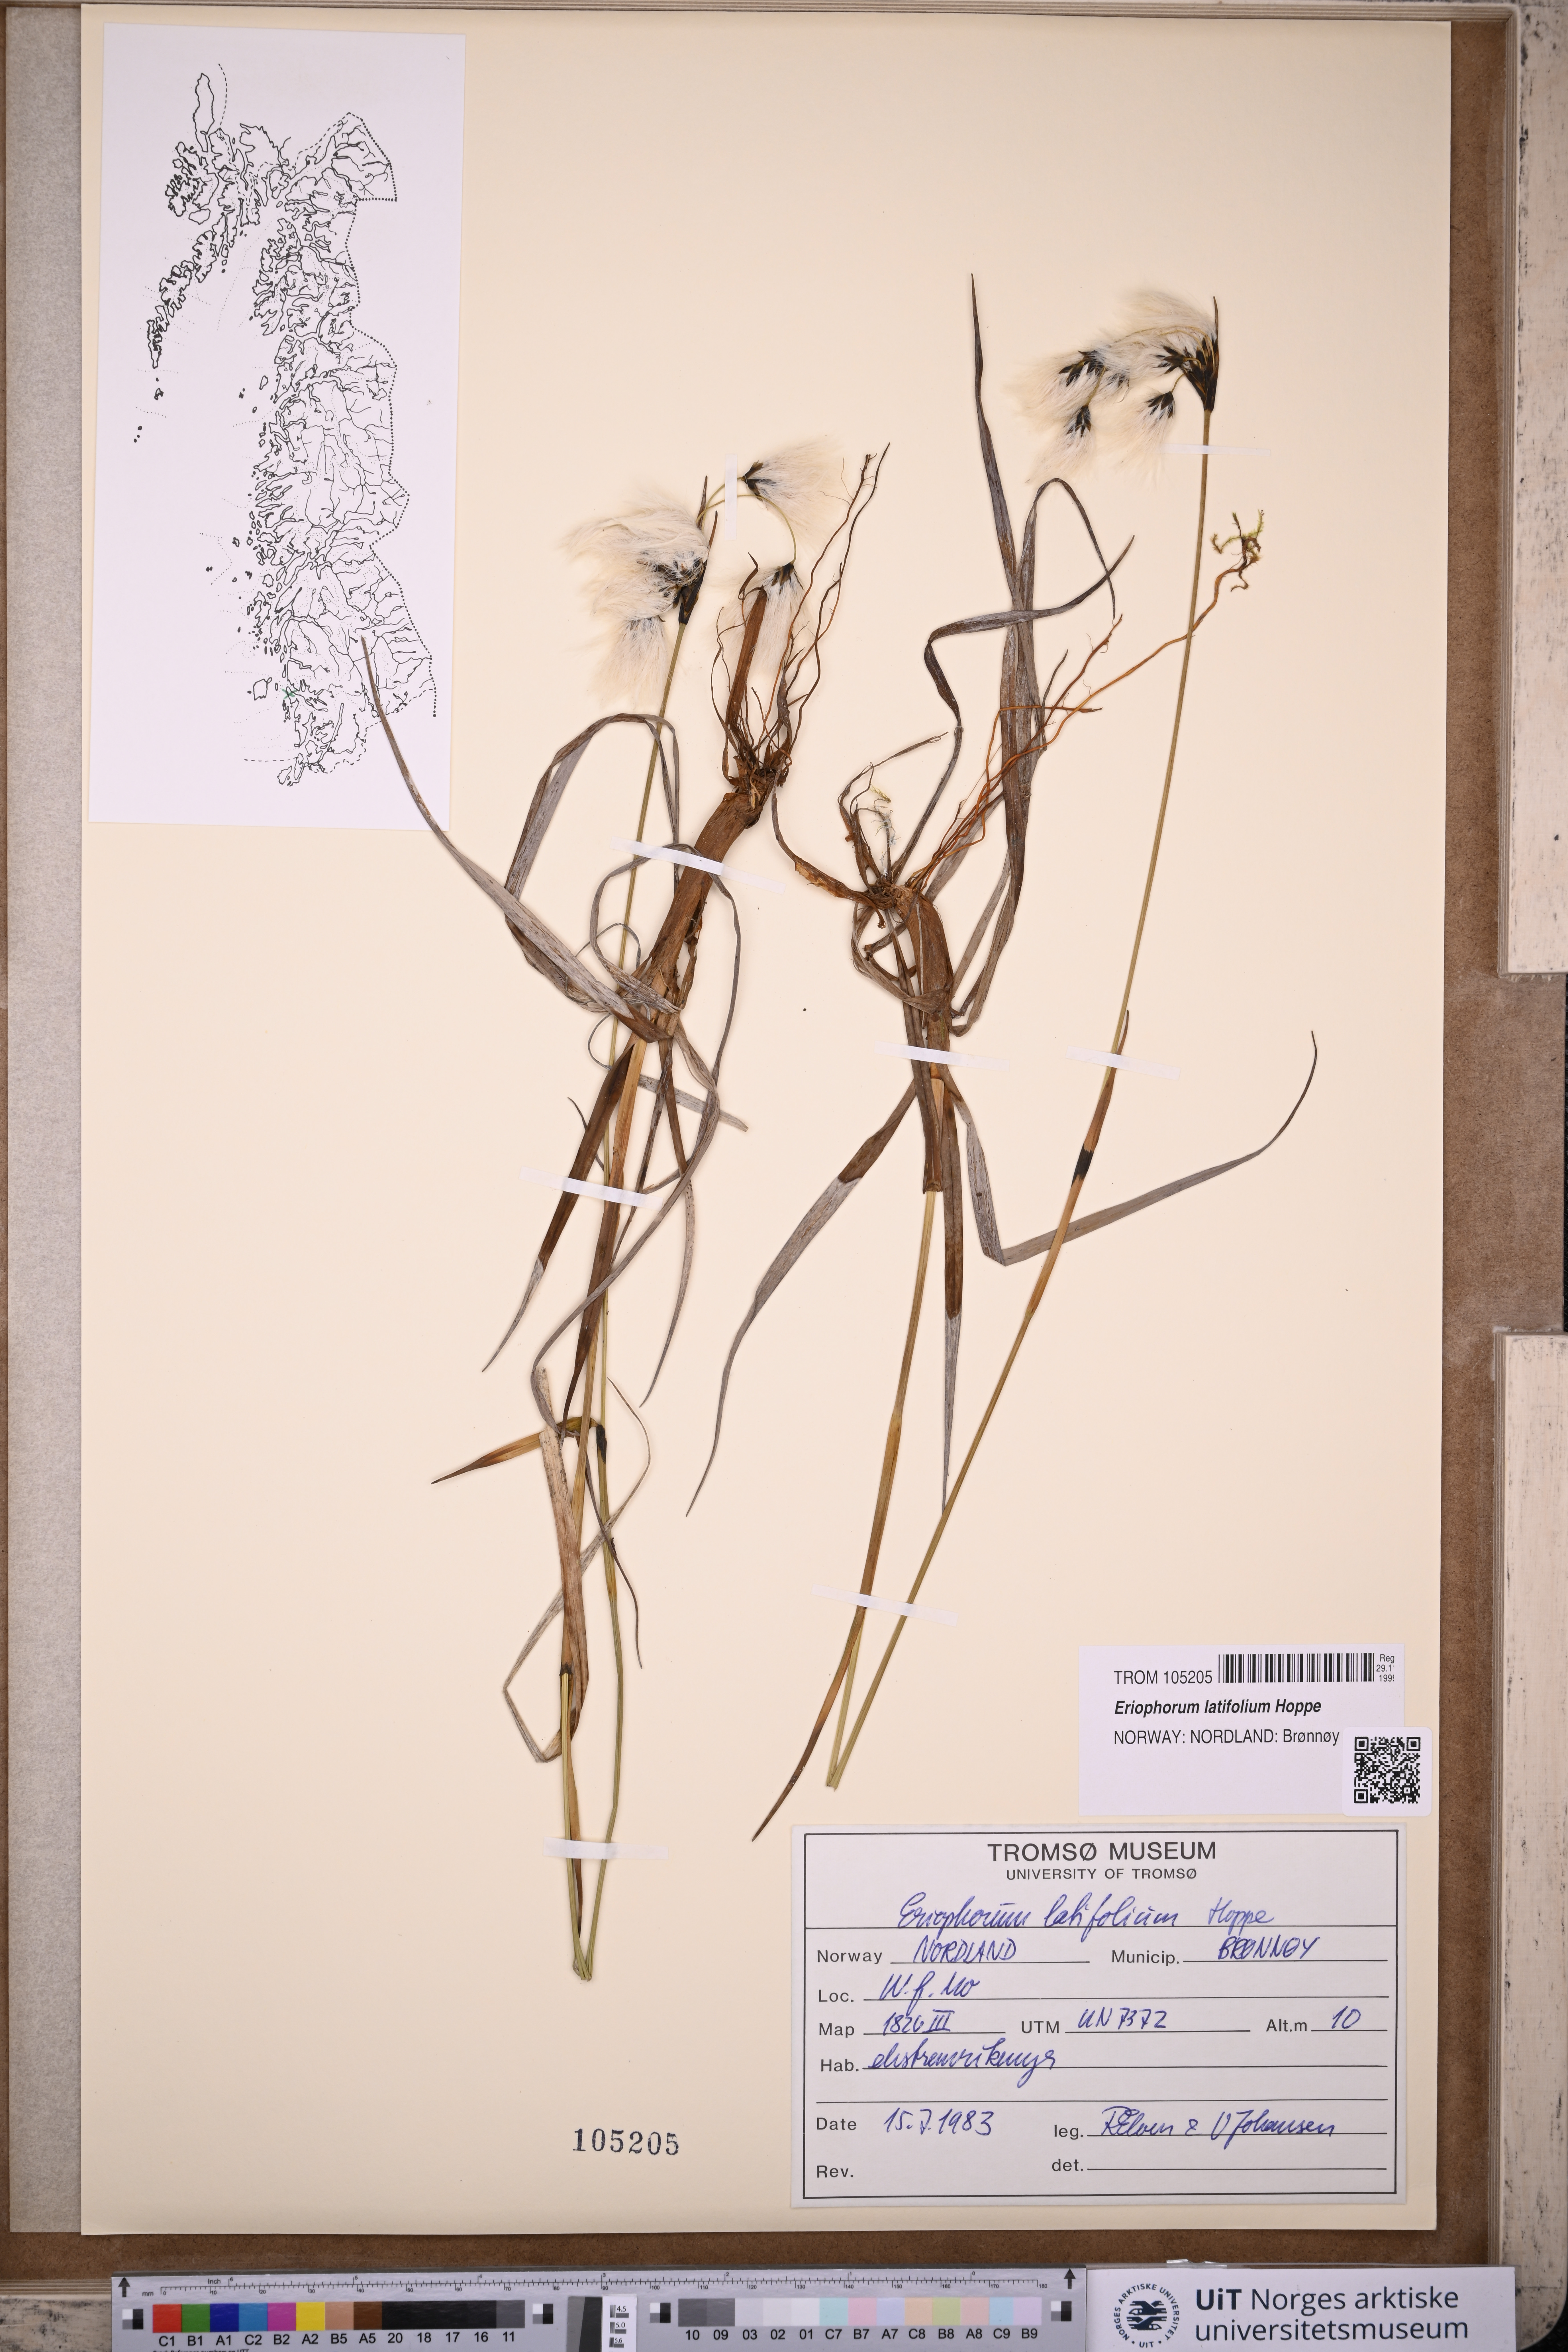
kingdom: Plantae
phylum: Tracheophyta
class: Liliopsida
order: Poales
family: Cyperaceae
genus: Eriophorum
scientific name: Eriophorum latifolium
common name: Broad-leaved cottongrass
